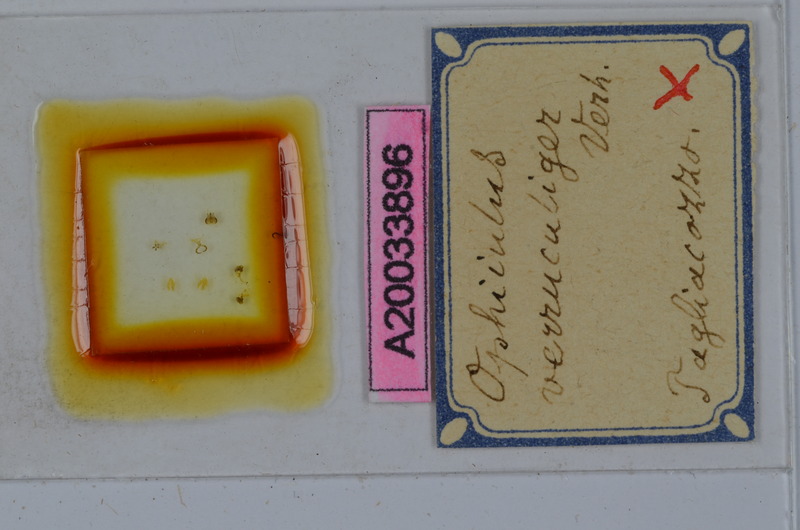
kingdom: Animalia
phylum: Arthropoda
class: Diplopoda
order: Julida
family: Julidae
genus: Ophyiulus
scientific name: Ophyiulus targionii
